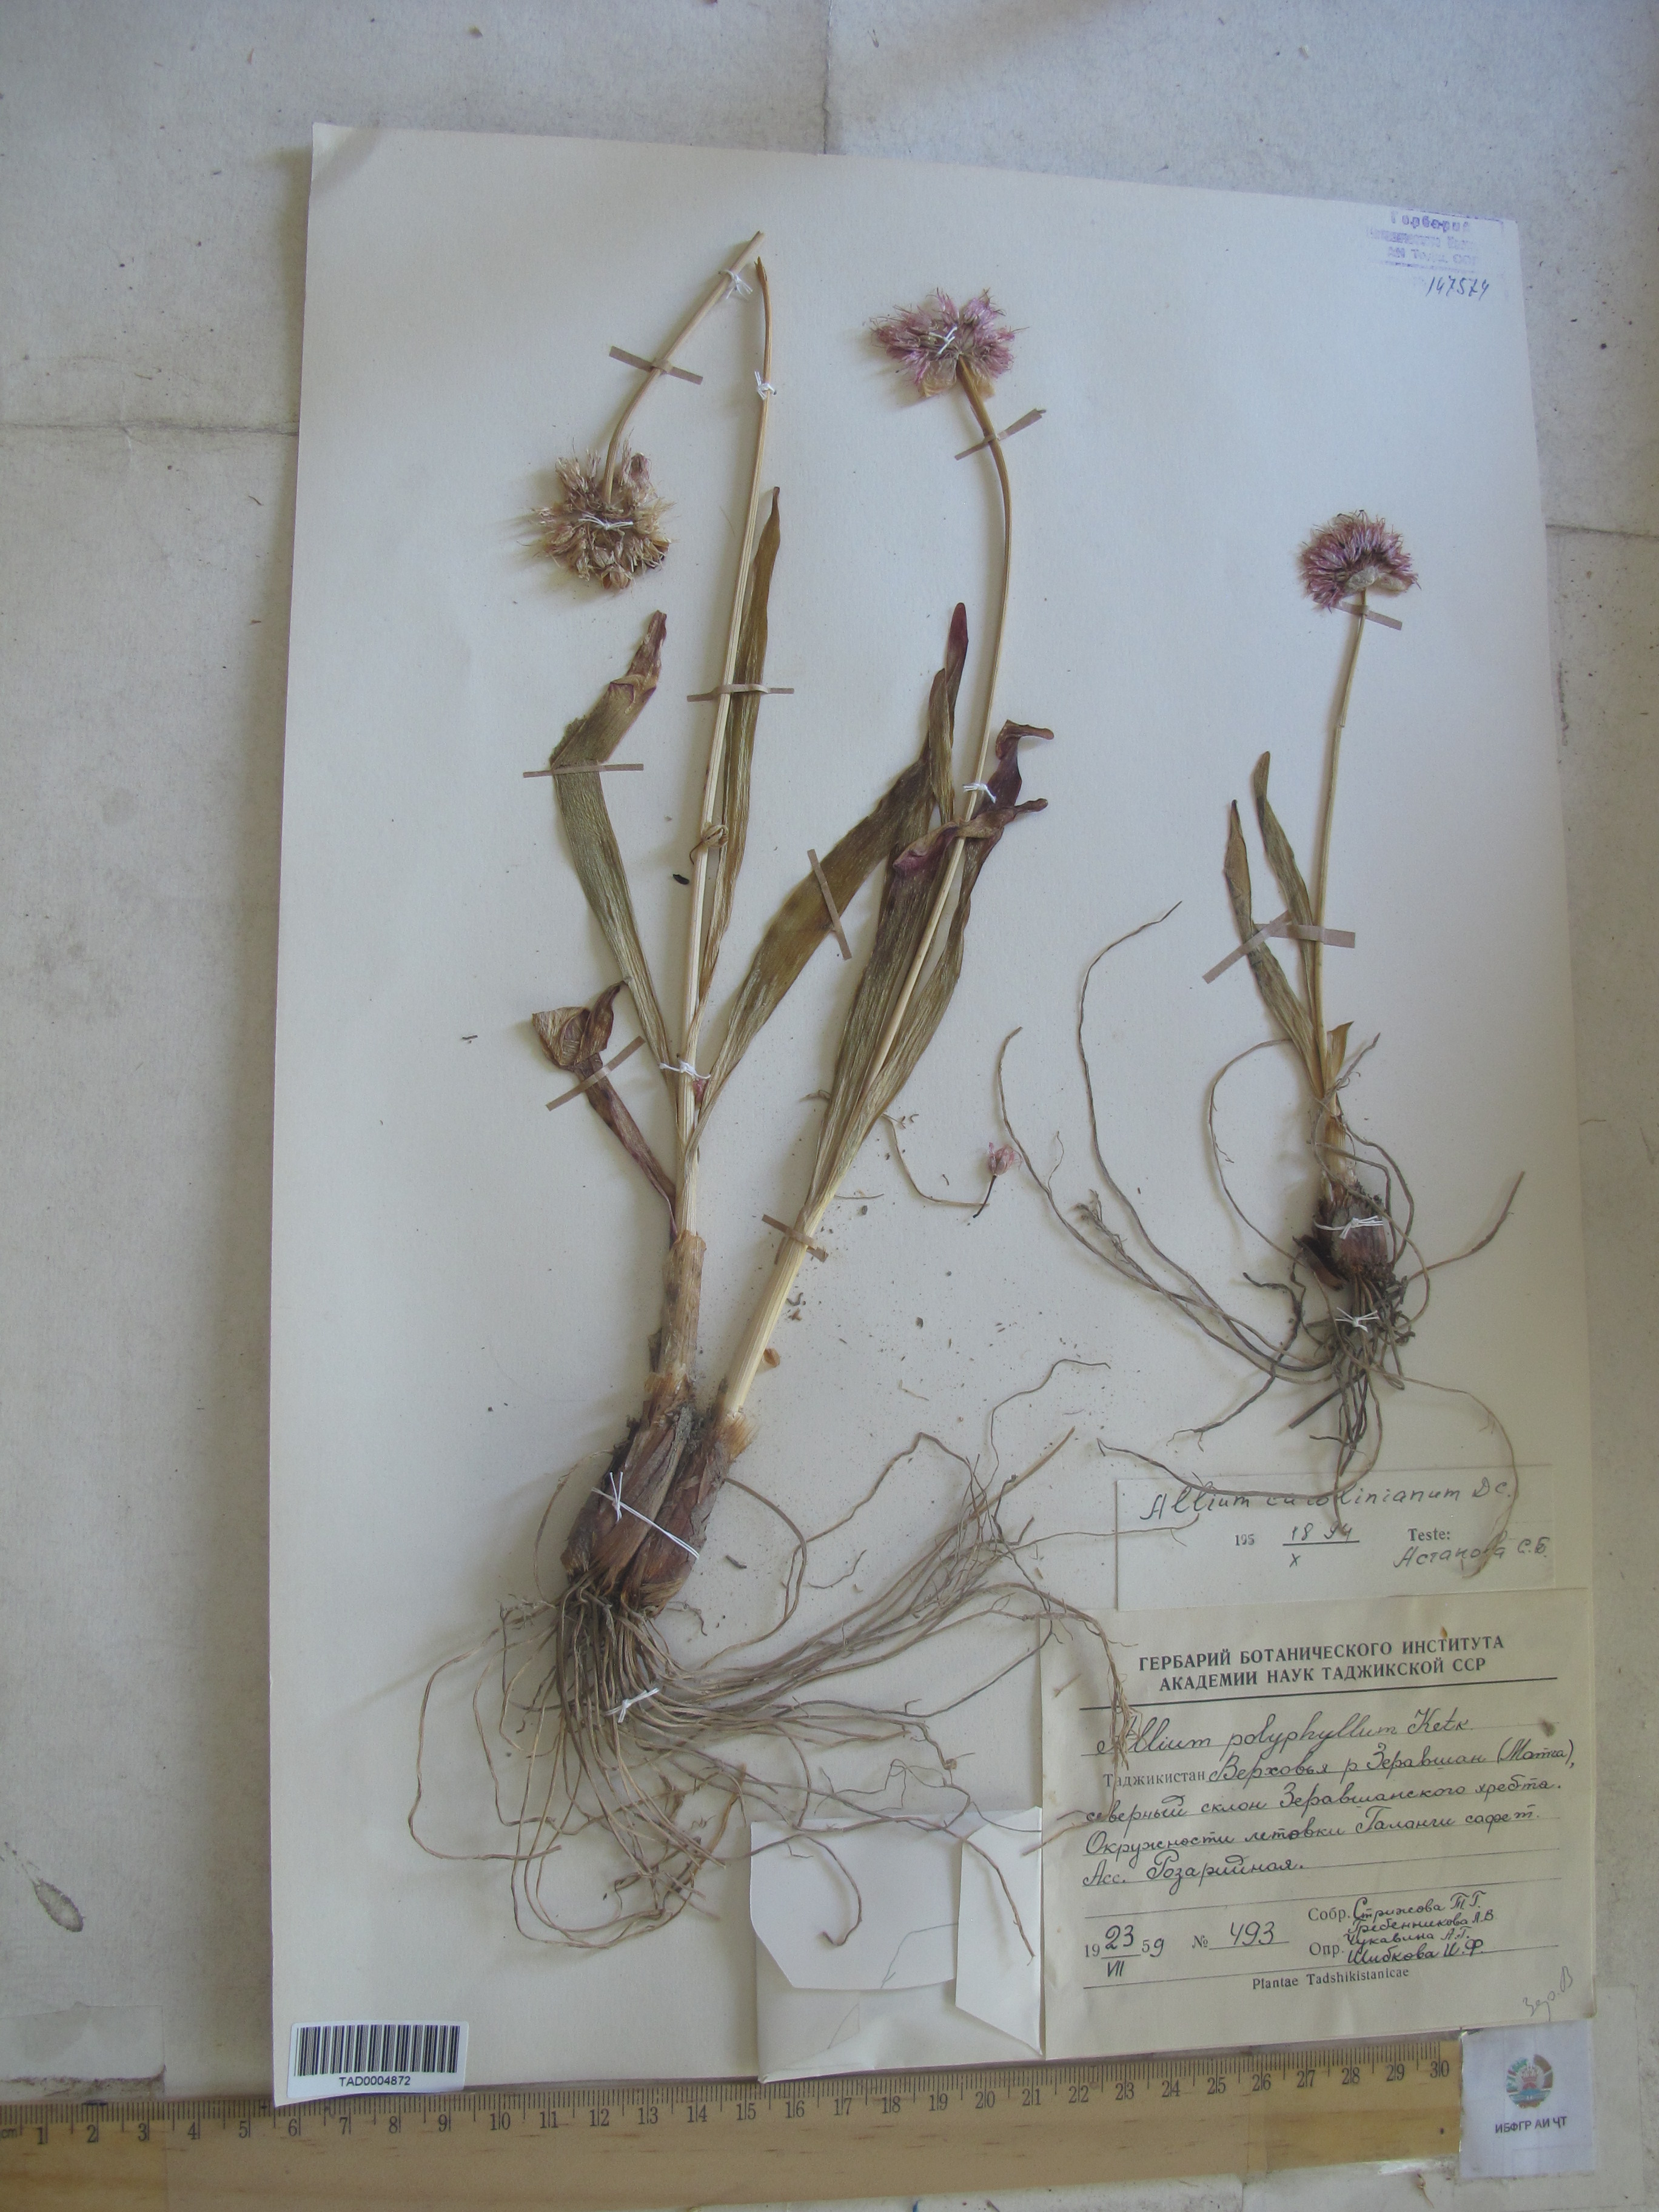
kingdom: Plantae
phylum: Tracheophyta
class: Liliopsida
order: Asparagales
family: Amaryllidaceae
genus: Allium
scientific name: Allium carolinianum
